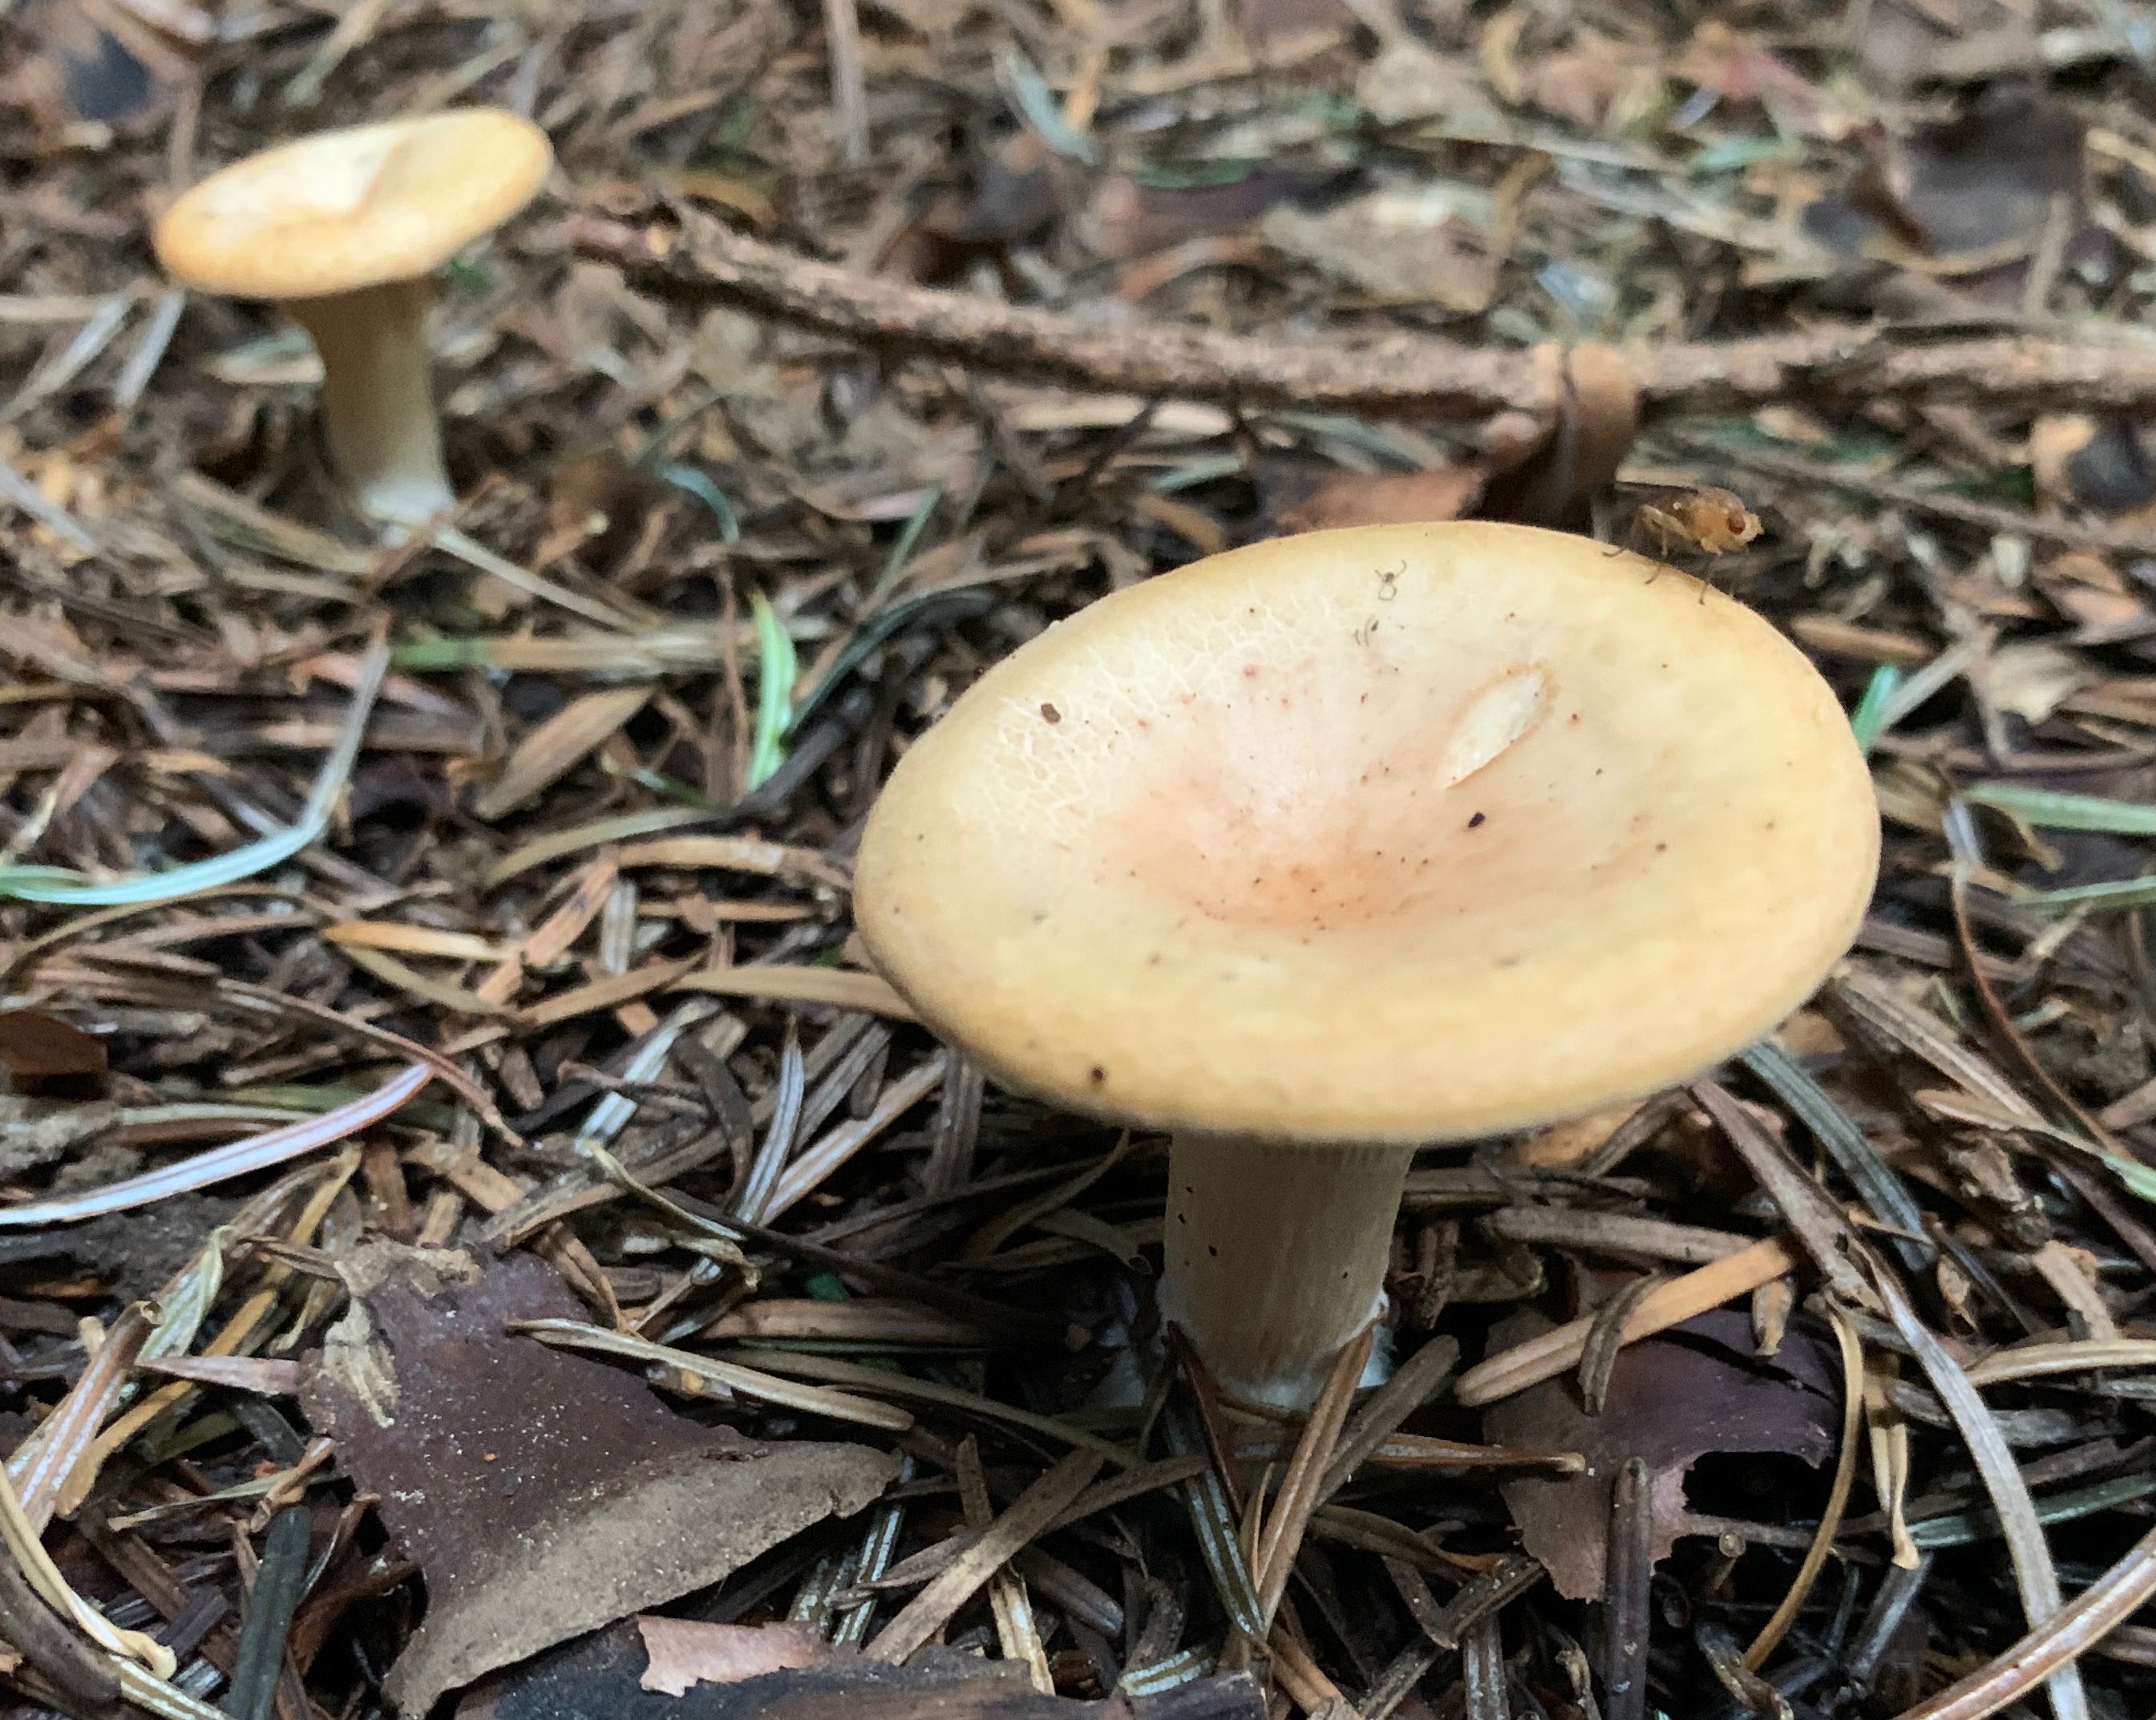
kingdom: Fungi
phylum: Basidiomycota
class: Agaricomycetes
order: Agaricales
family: Tricholomataceae
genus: Paralepista
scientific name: Paralepista gilva
